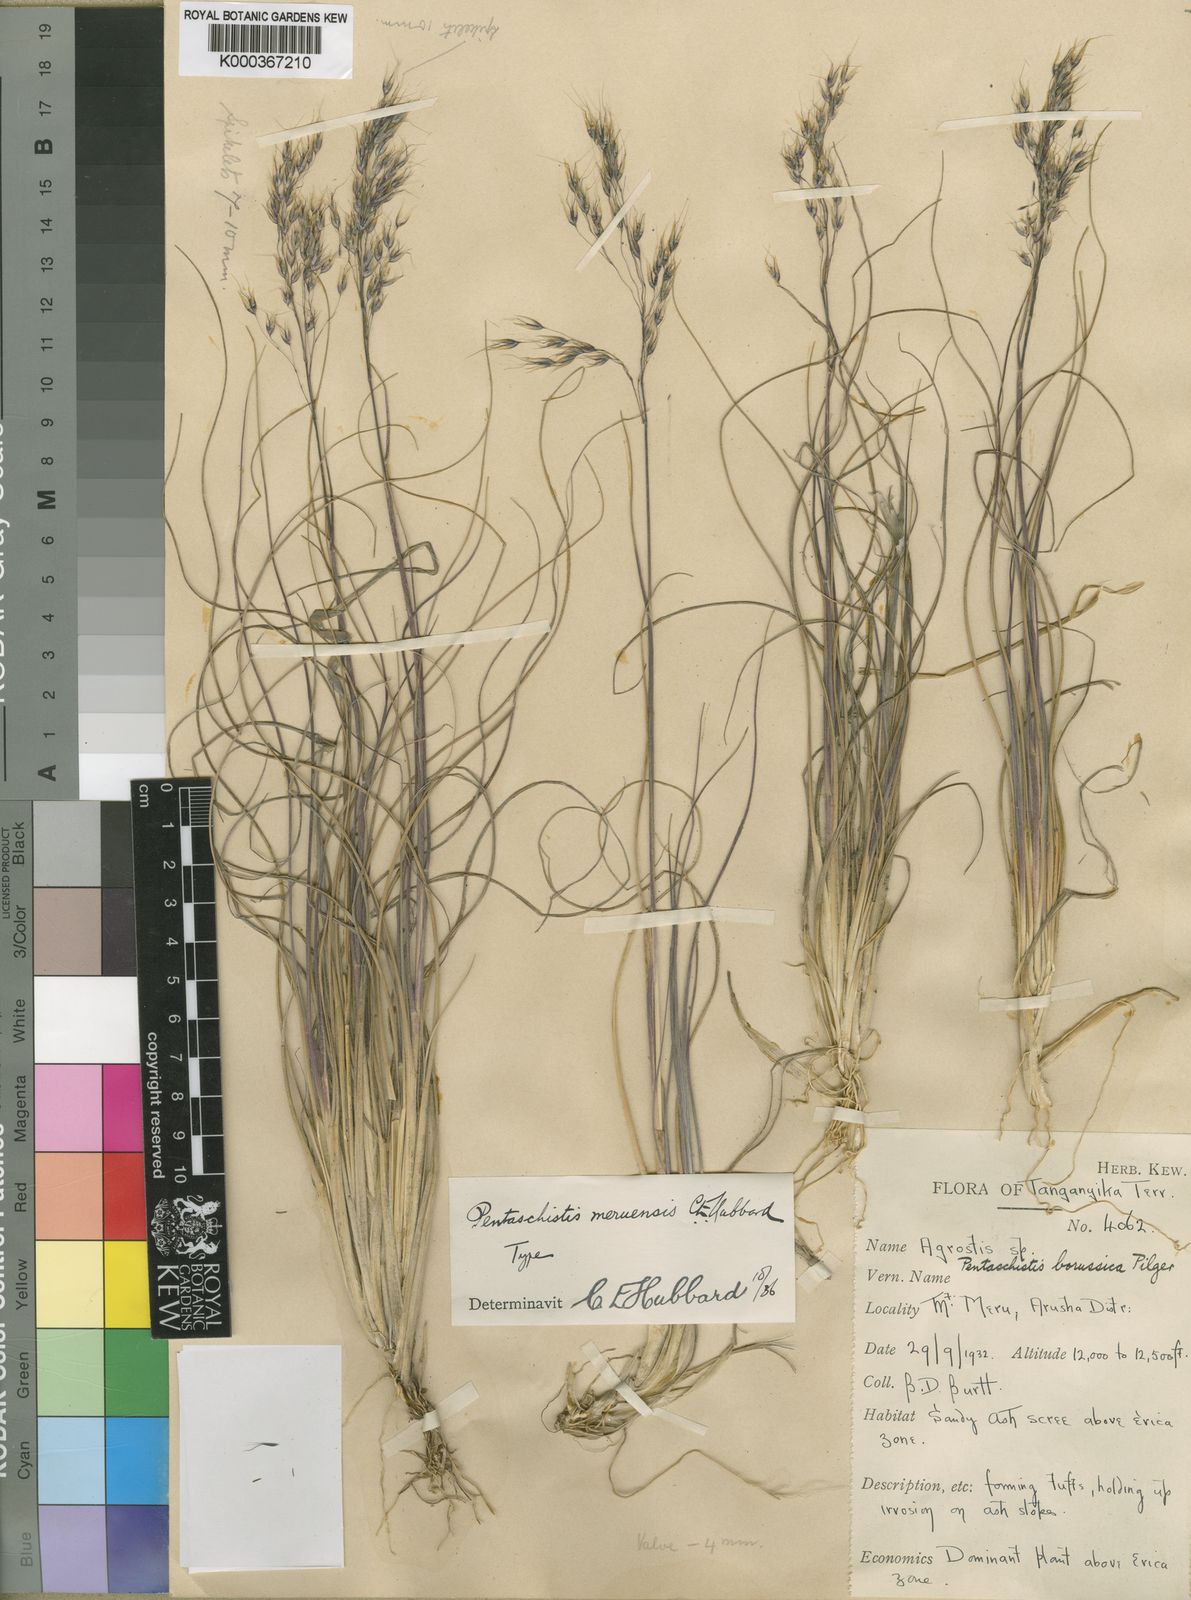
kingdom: Plantae
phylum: Tracheophyta
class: Liliopsida
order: Poales
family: Poaceae
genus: Pentameris
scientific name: Pentameris borussica
